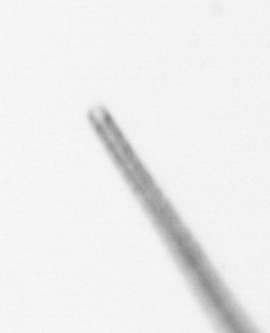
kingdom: Chromista
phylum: Ochrophyta
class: Bacillariophyceae
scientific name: Bacillariophyceae
